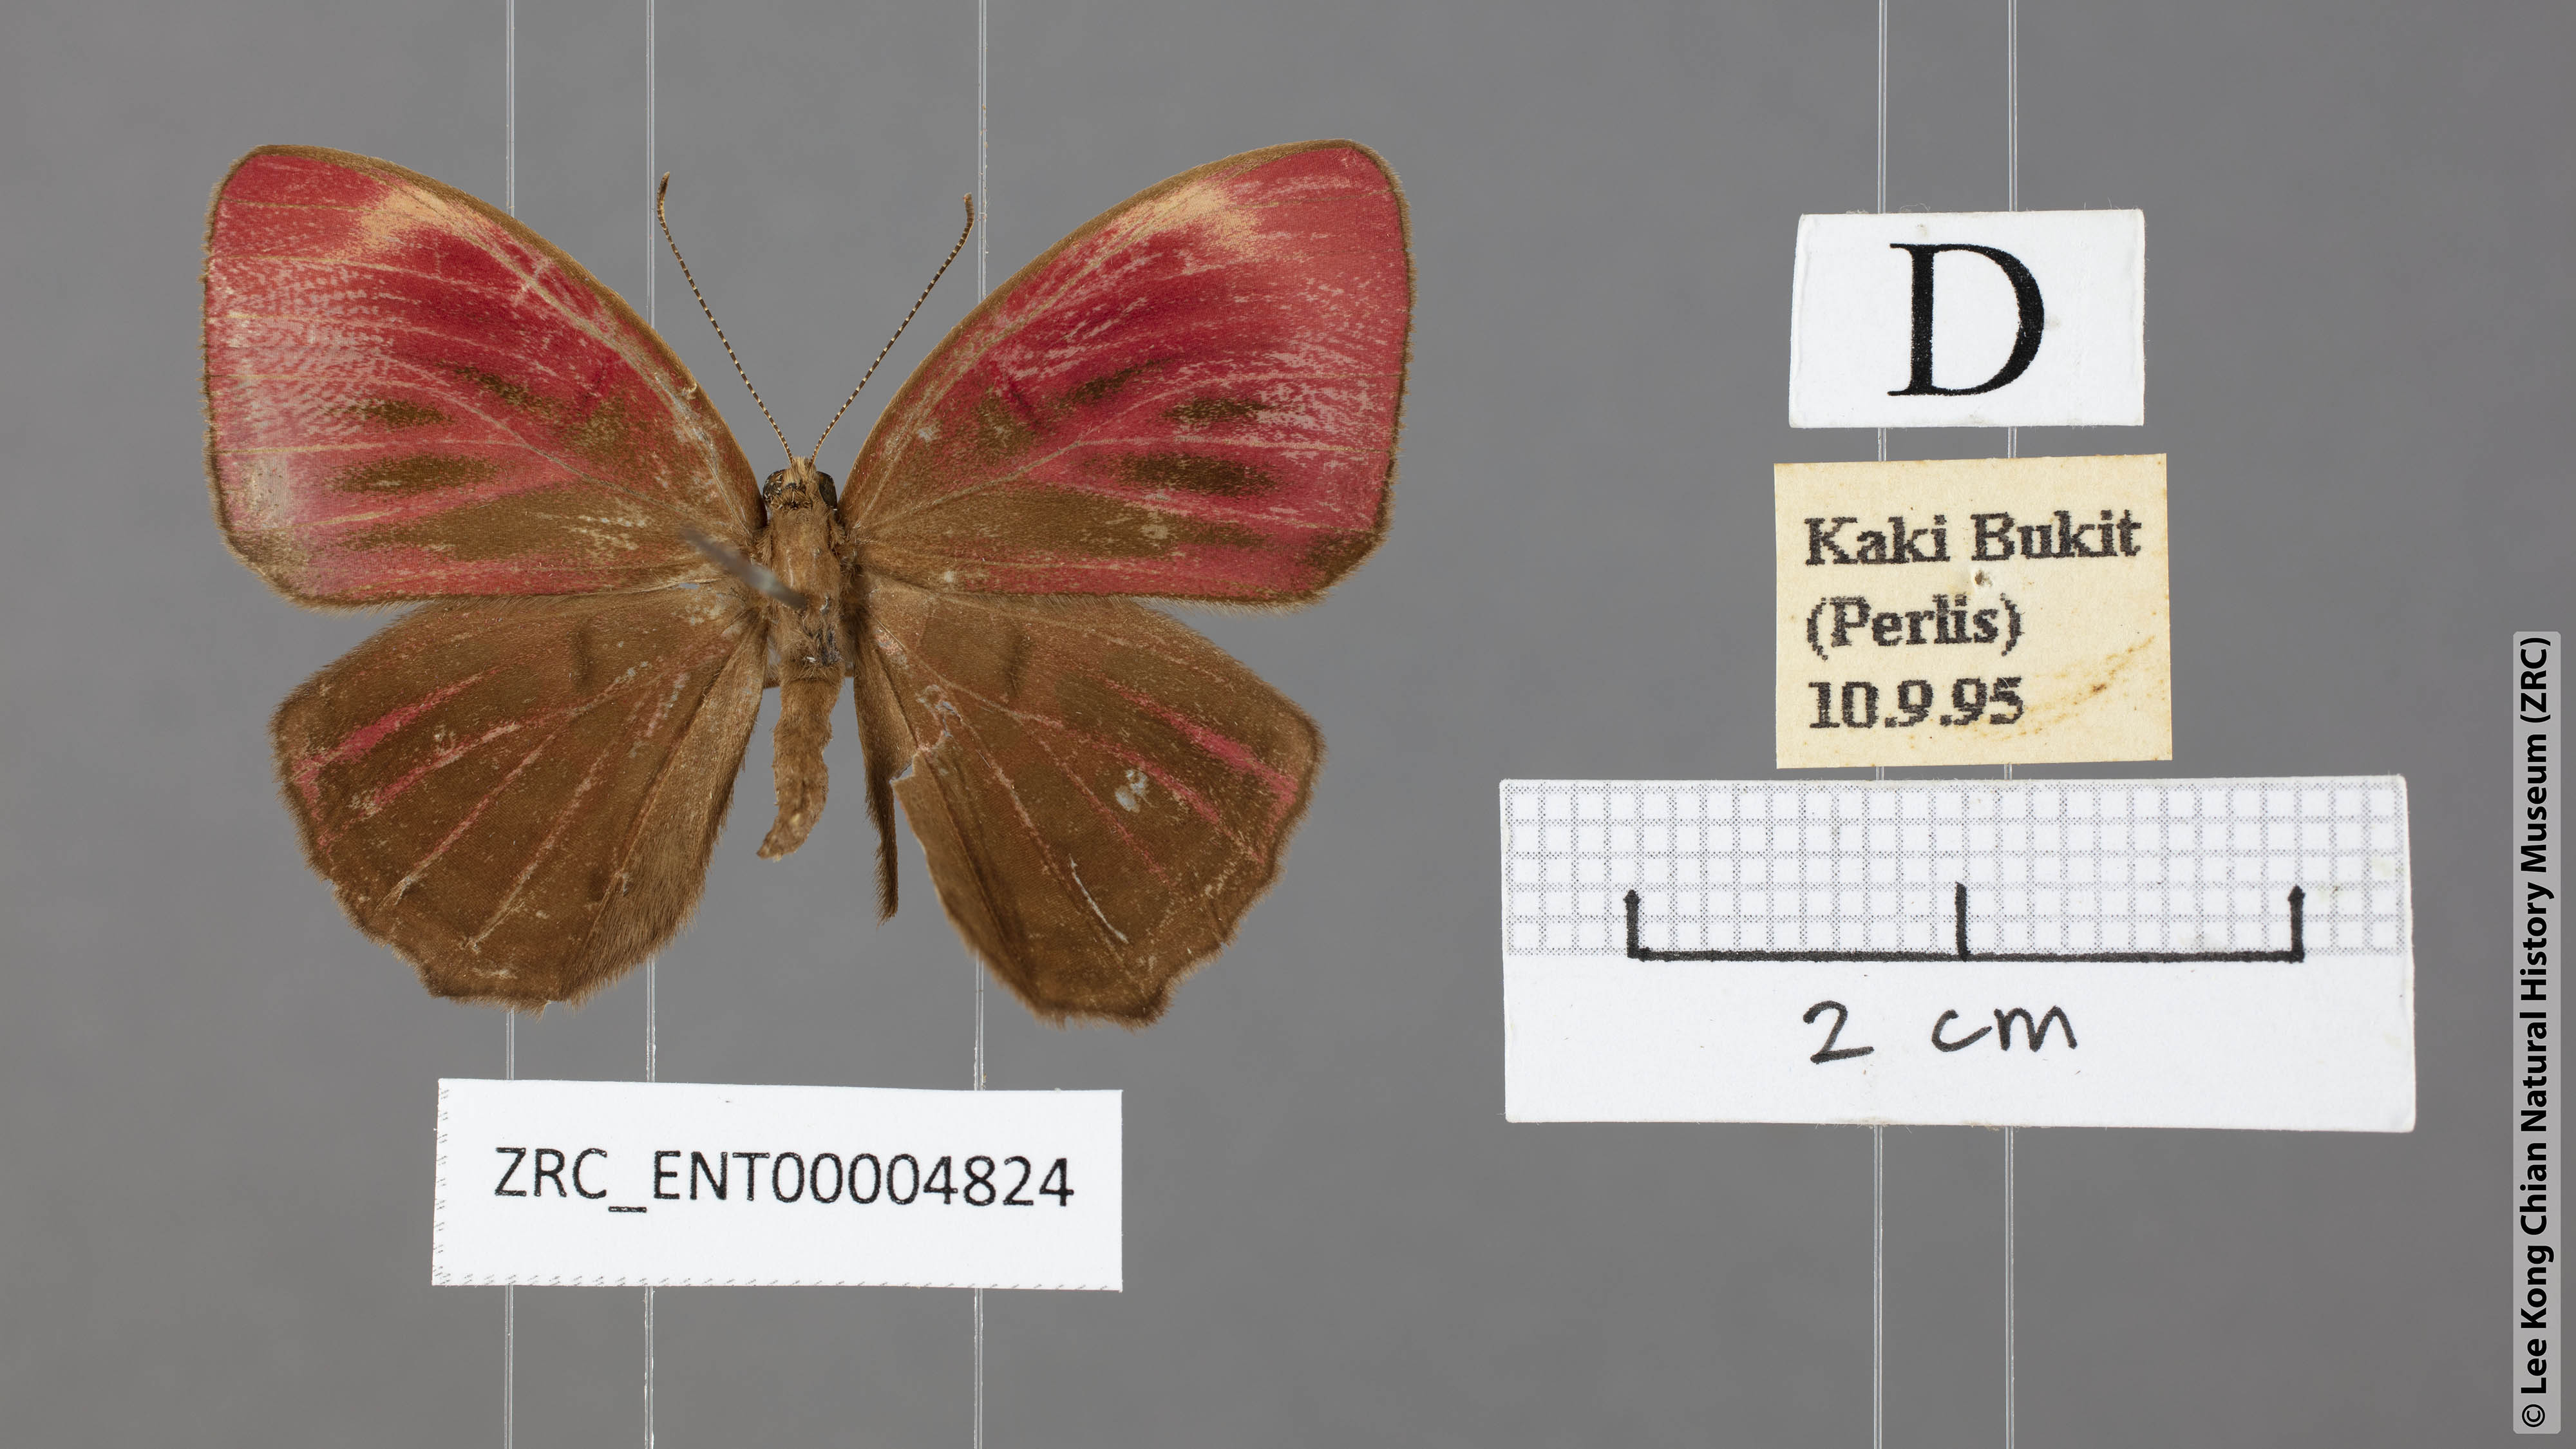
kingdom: Animalia
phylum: Arthropoda
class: Insecta
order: Lepidoptera
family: Lycaenidae
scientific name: Lycaenidae
